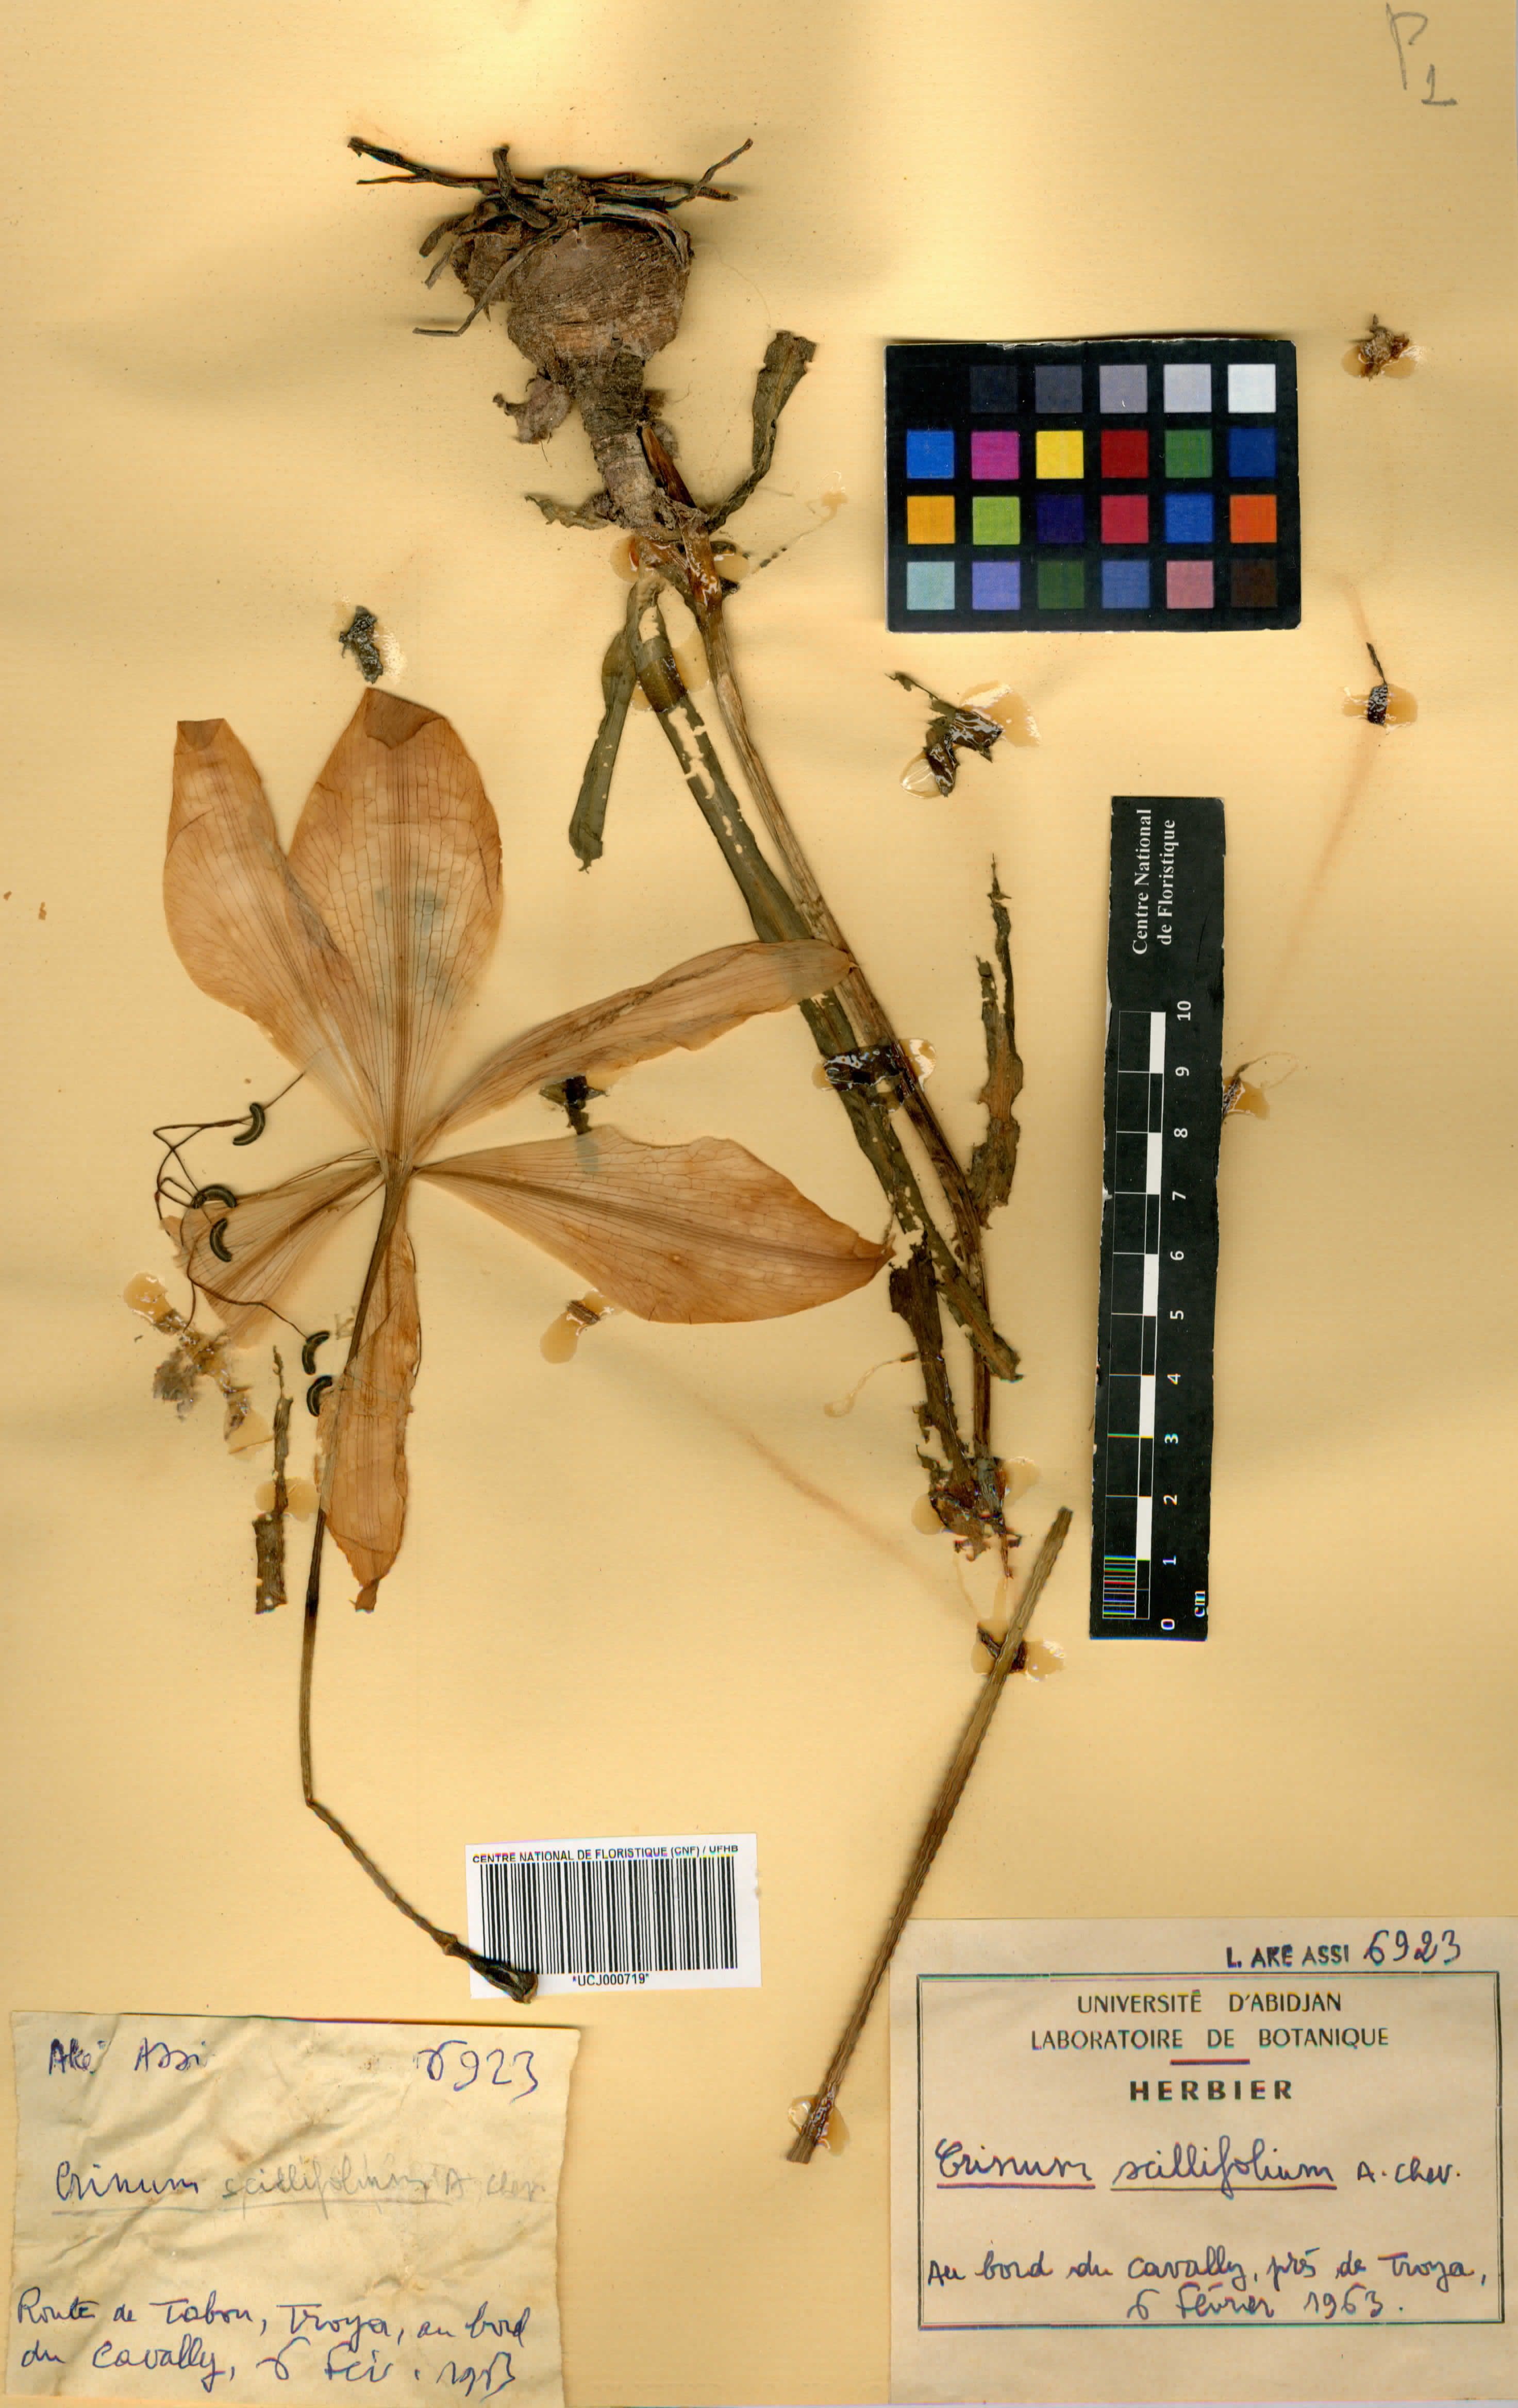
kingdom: Plantae
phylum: Tracheophyta
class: Liliopsida
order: Asparagales
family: Amaryllidaceae
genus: Crinum
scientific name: Crinum scillifolium
